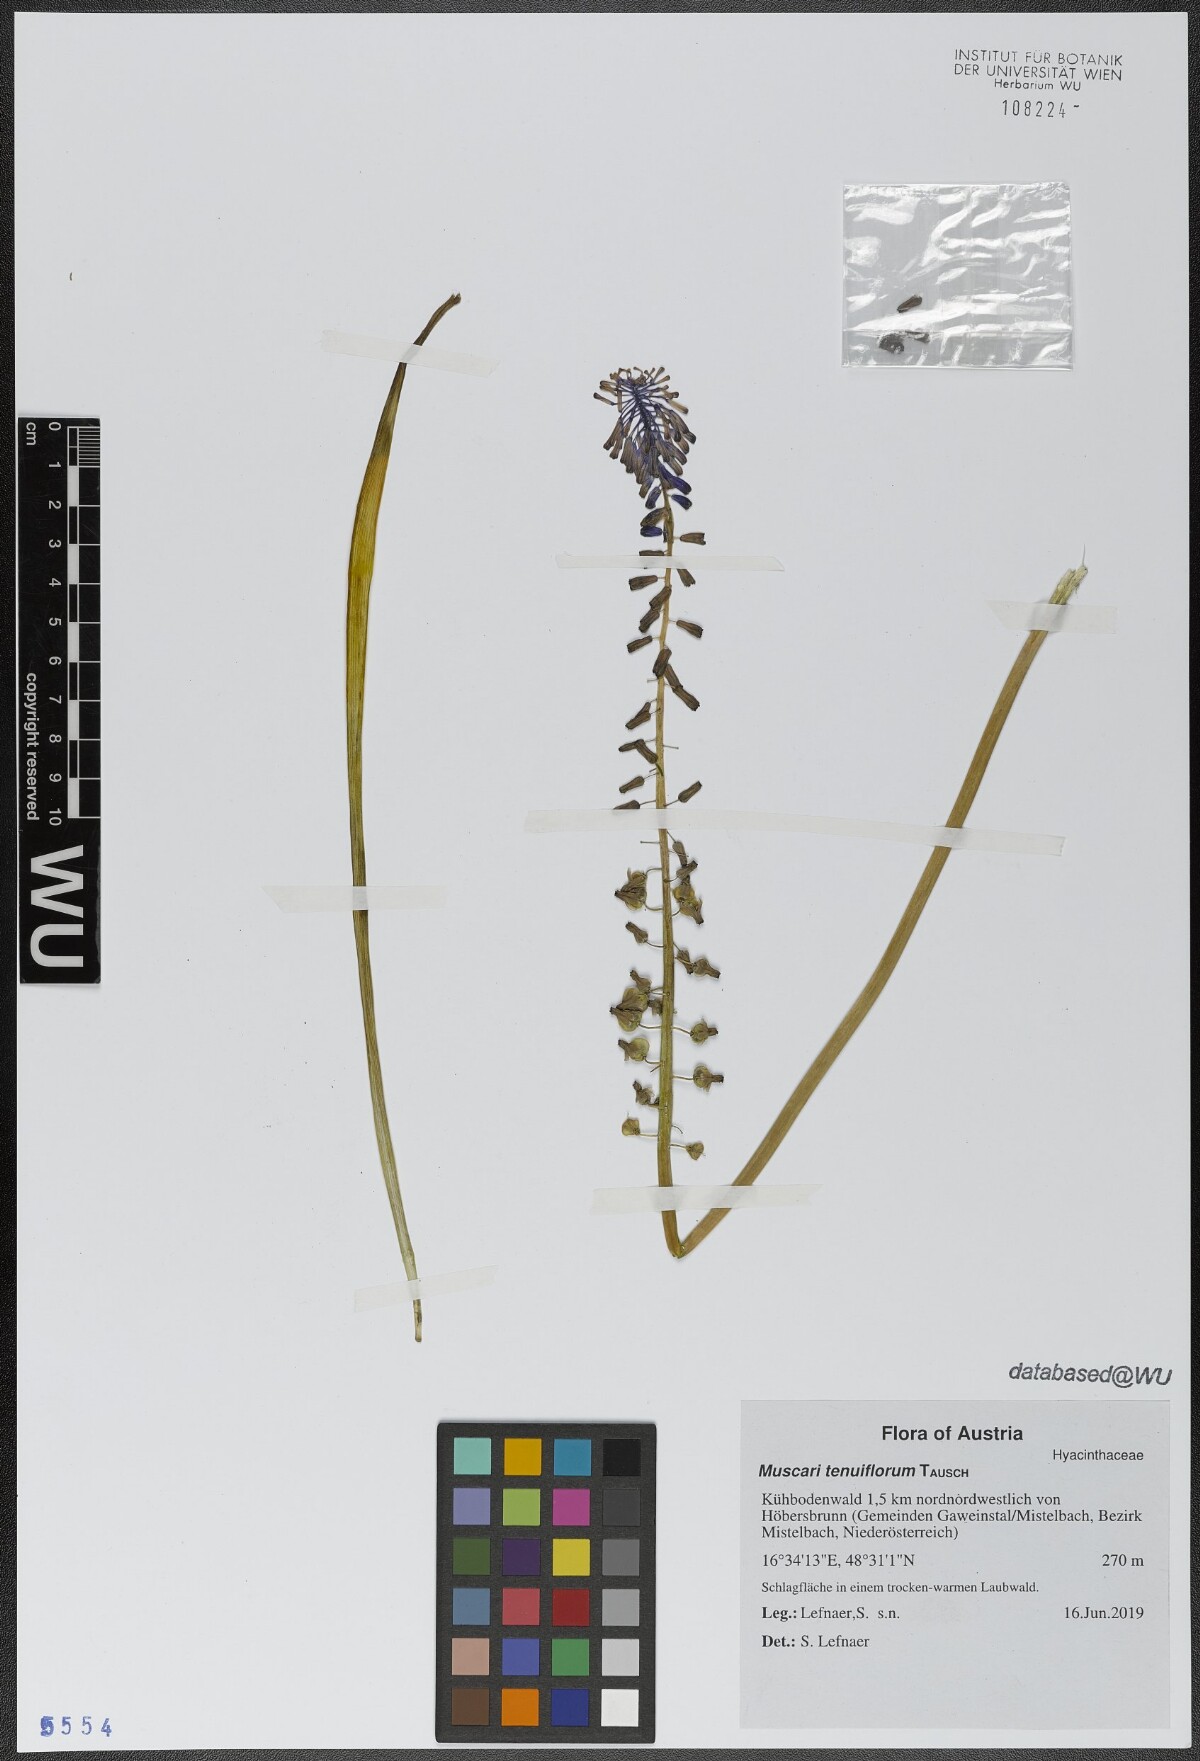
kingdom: Plantae
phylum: Tracheophyta
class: Liliopsida
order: Asparagales
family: Asparagaceae
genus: Muscari
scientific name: Muscari tenuiflorum
